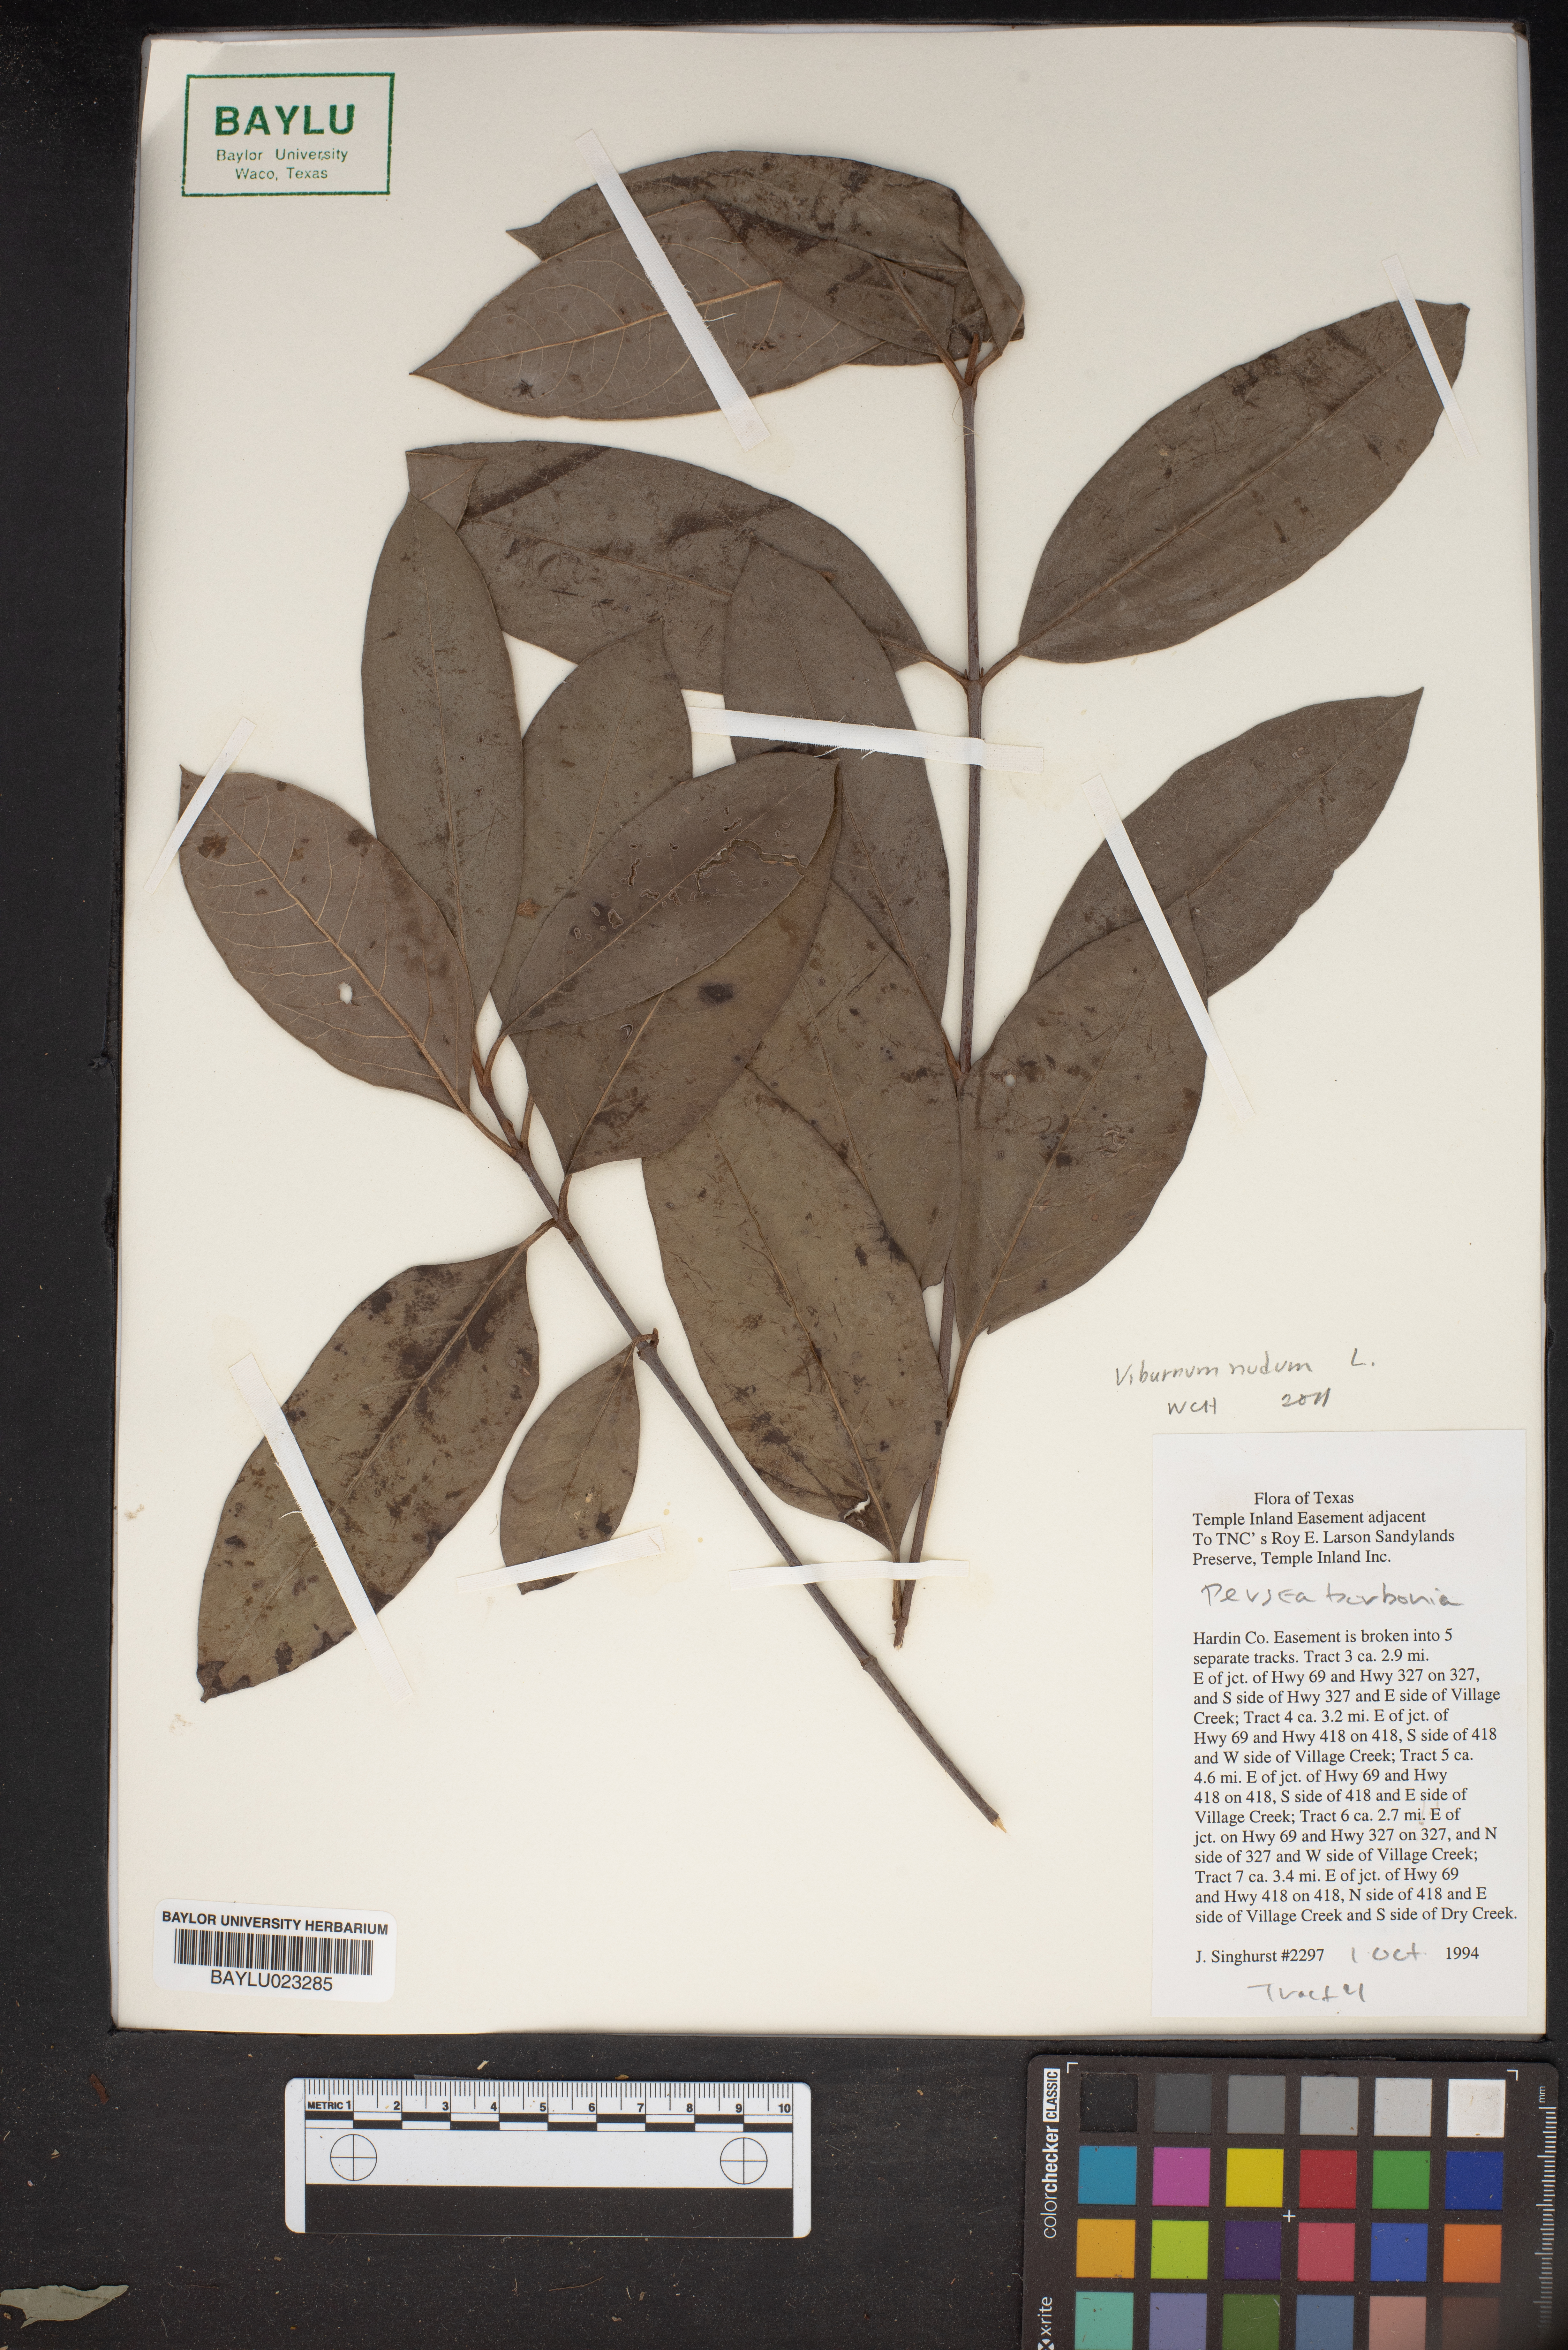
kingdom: Plantae
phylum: Tracheophyta
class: Magnoliopsida
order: Laurales
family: Lauraceae
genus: Persea
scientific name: Persea borbonia
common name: Redbay
